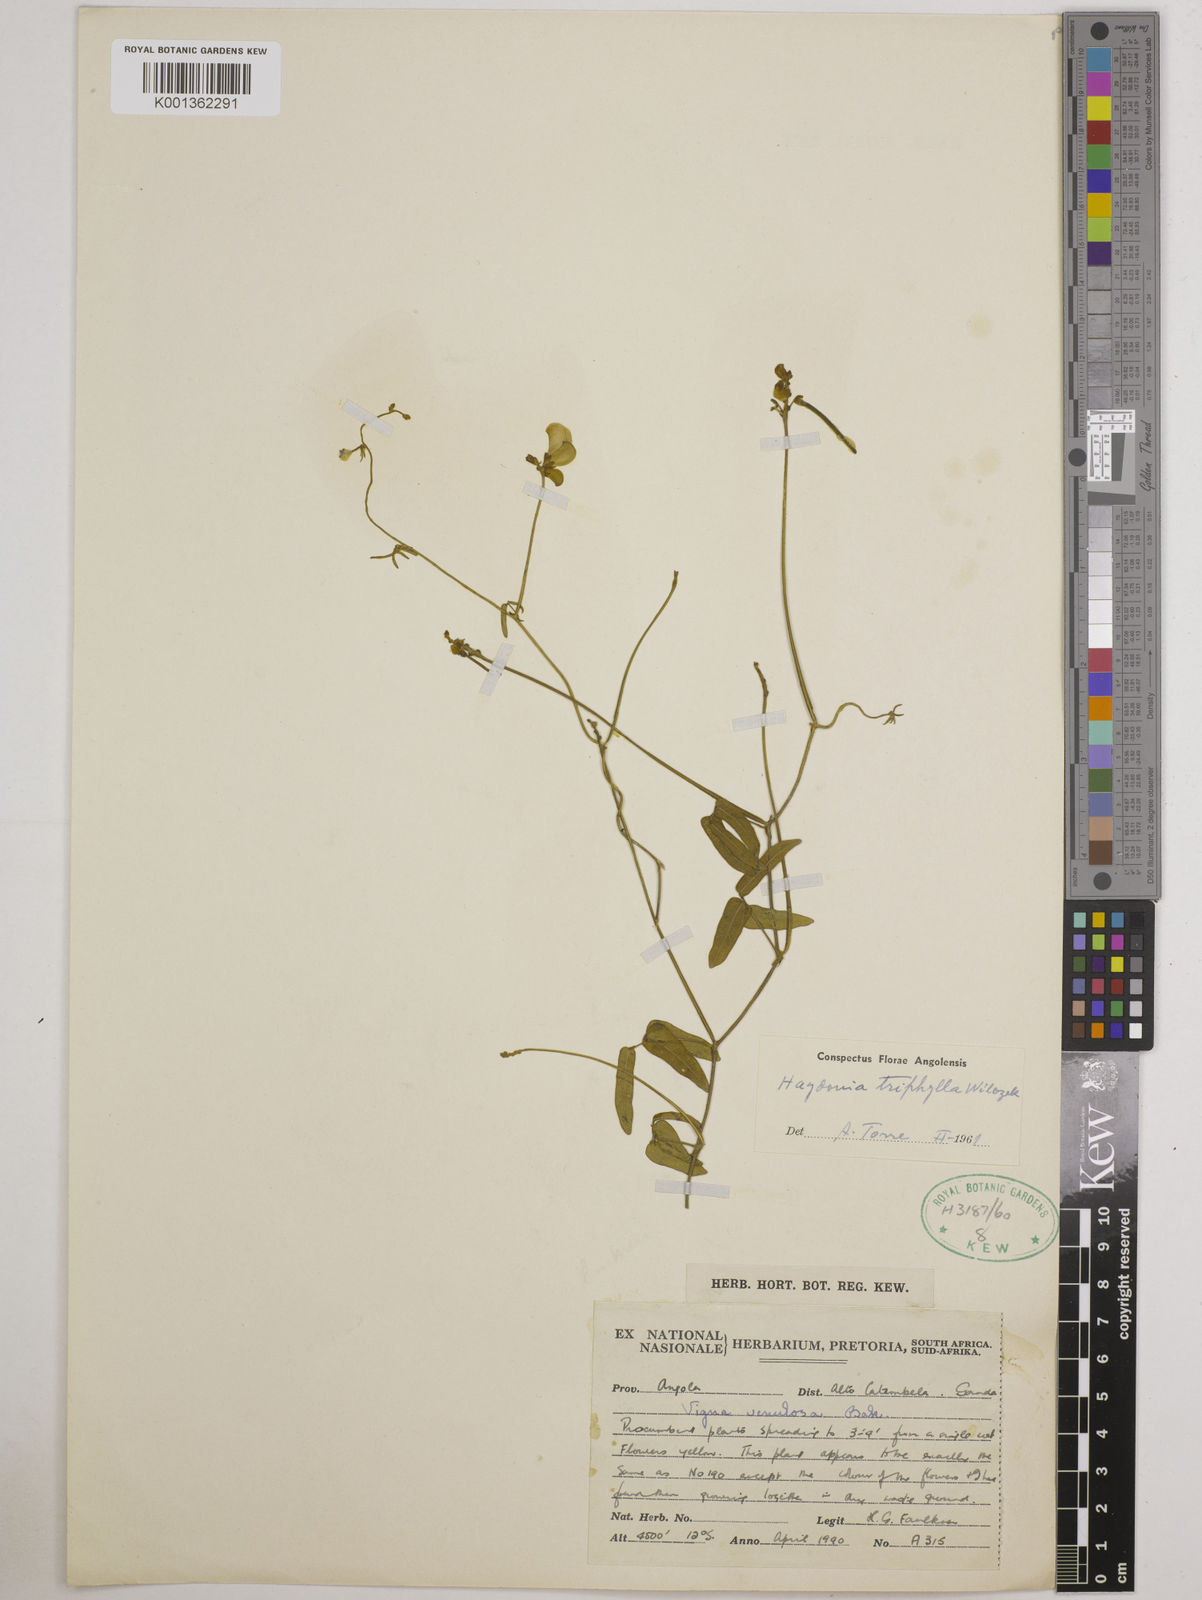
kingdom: Plantae
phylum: Tracheophyta
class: Magnoliopsida
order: Fabales
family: Fabaceae
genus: Vigna
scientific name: Vigna triphylla
